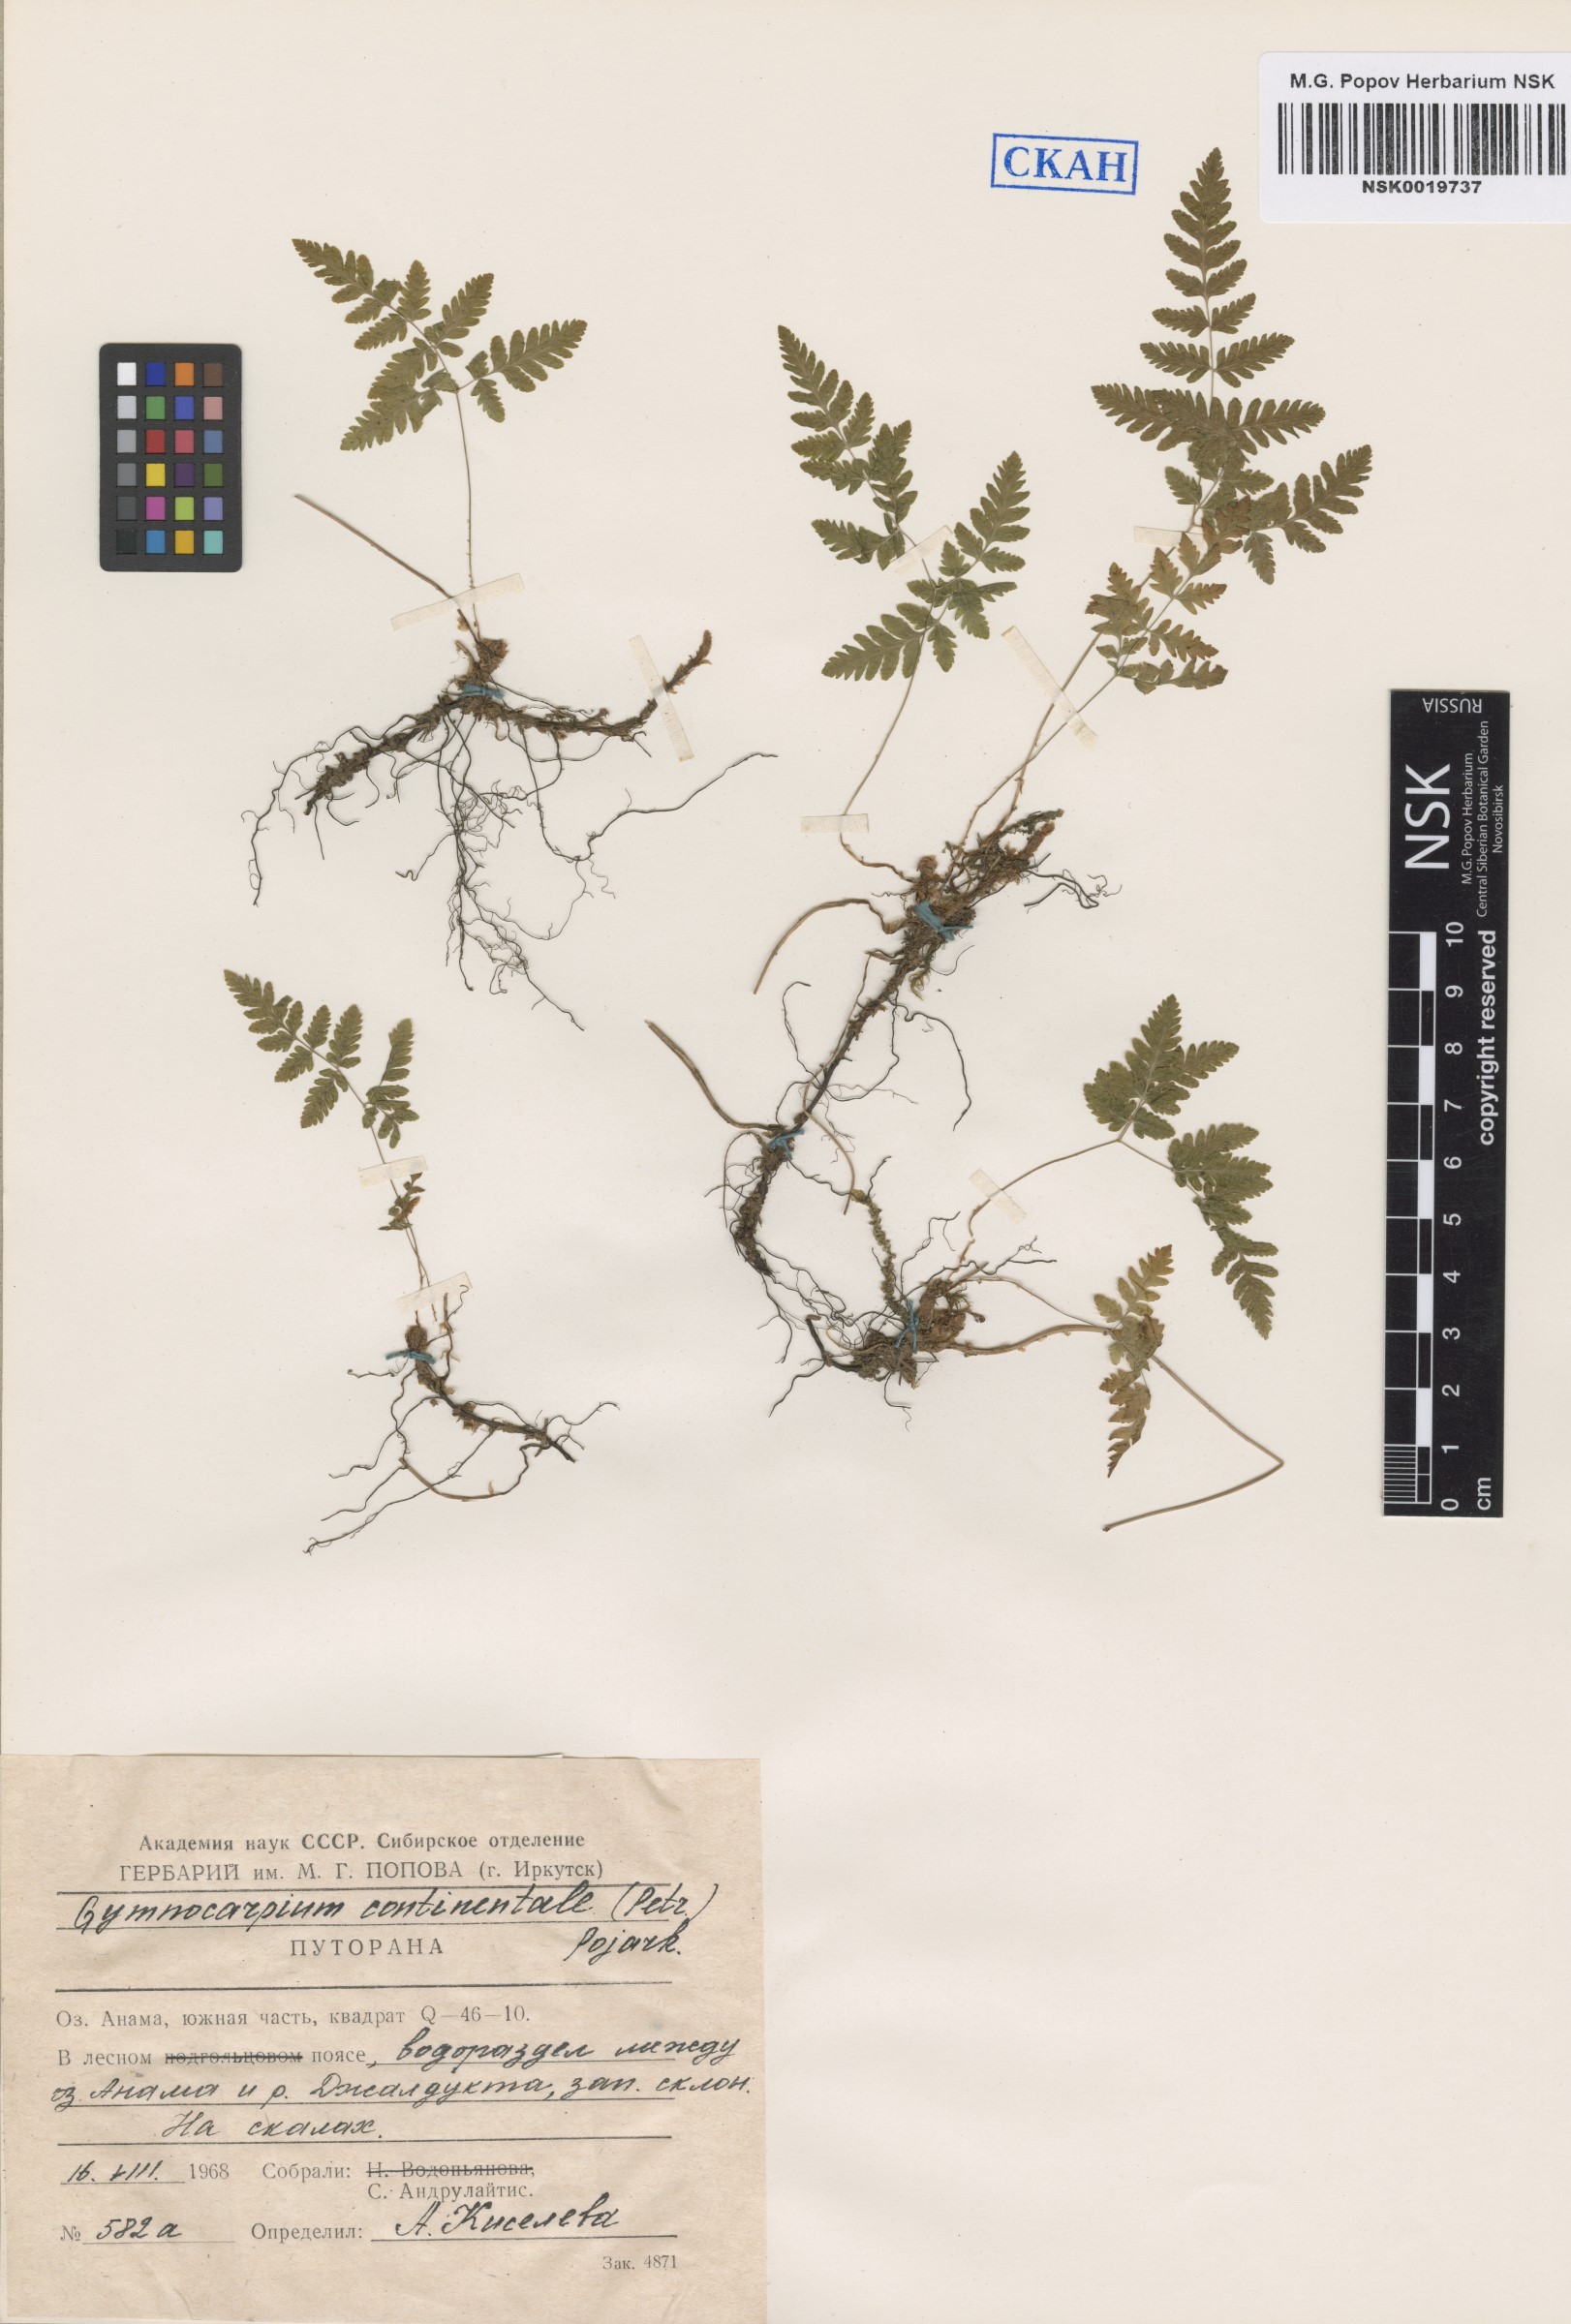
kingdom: Plantae
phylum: Tracheophyta
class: Polypodiopsida
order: Polypodiales
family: Cystopteridaceae
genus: Gymnocarpium
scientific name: Gymnocarpium continentale
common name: Asian oak fern
